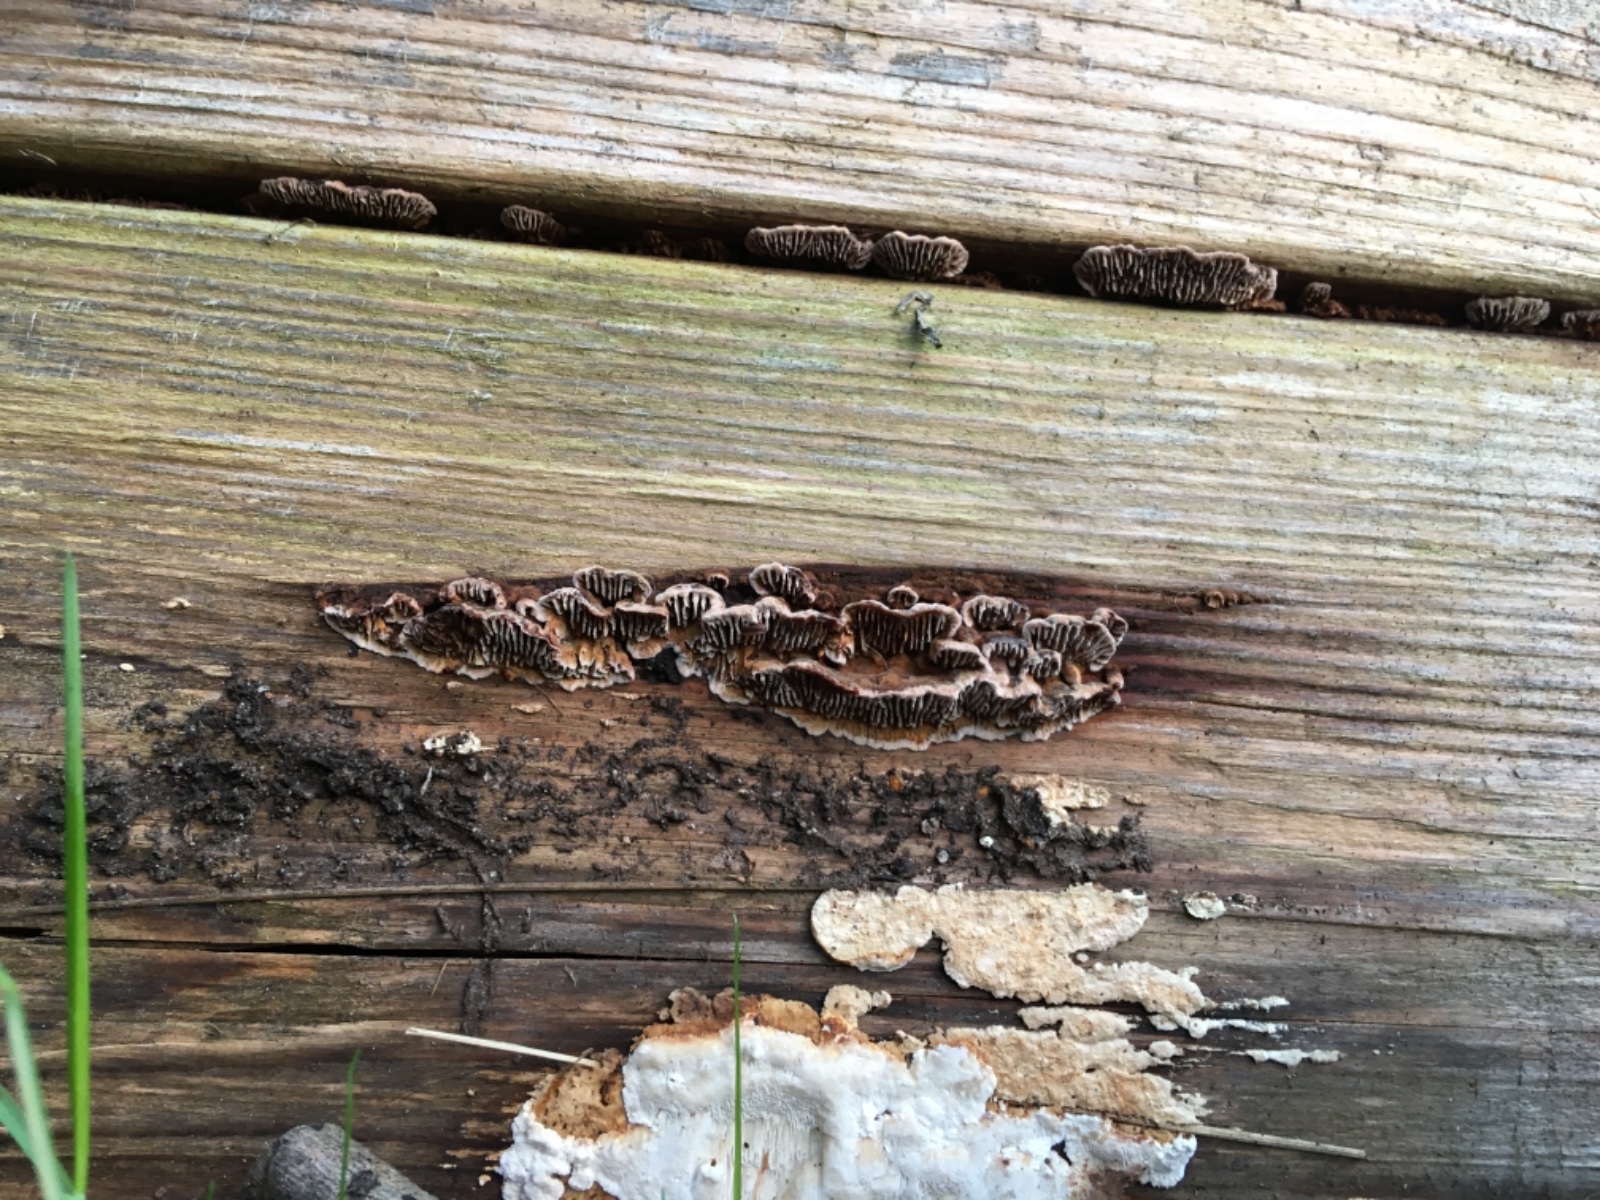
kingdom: Fungi
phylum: Basidiomycota
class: Agaricomycetes
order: Gloeophyllales
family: Gloeophyllaceae
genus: Gloeophyllum
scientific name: Gloeophyllum abietinum
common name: gran-korkhat
